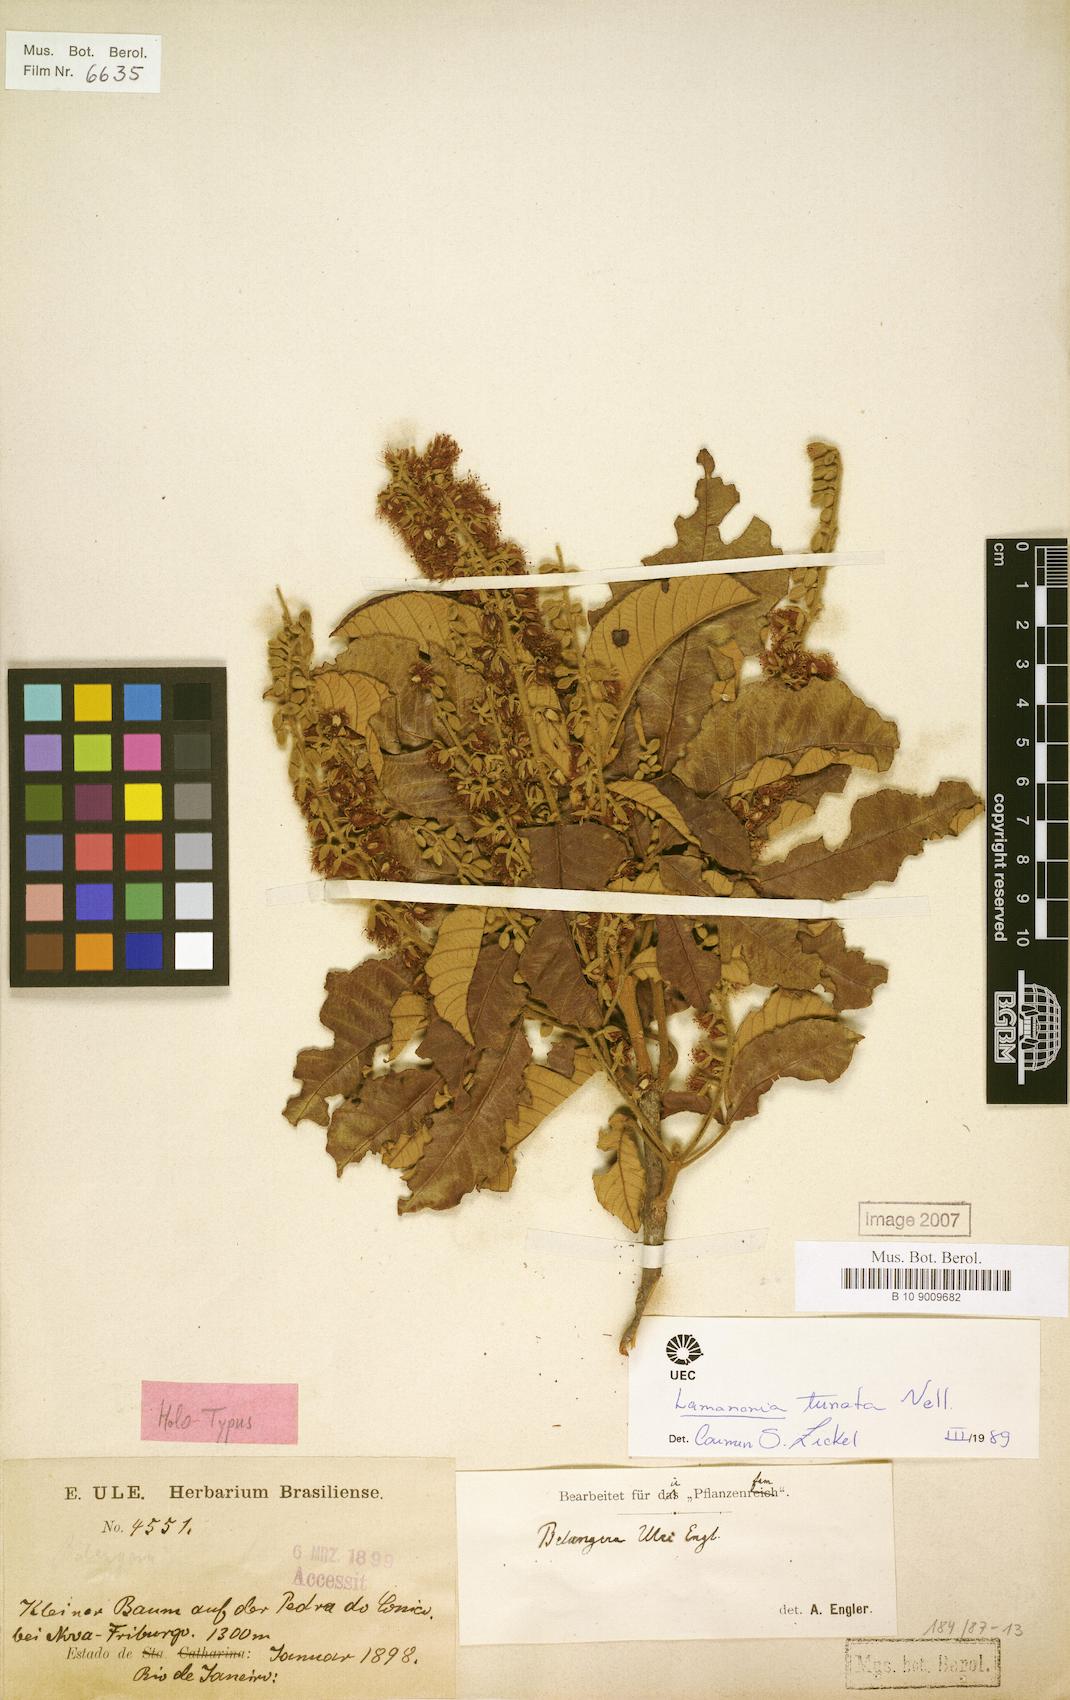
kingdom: Plantae
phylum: Tracheophyta
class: Magnoliopsida
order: Oxalidales
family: Cunoniaceae
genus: Lamanonia
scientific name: Lamanonia ternata
